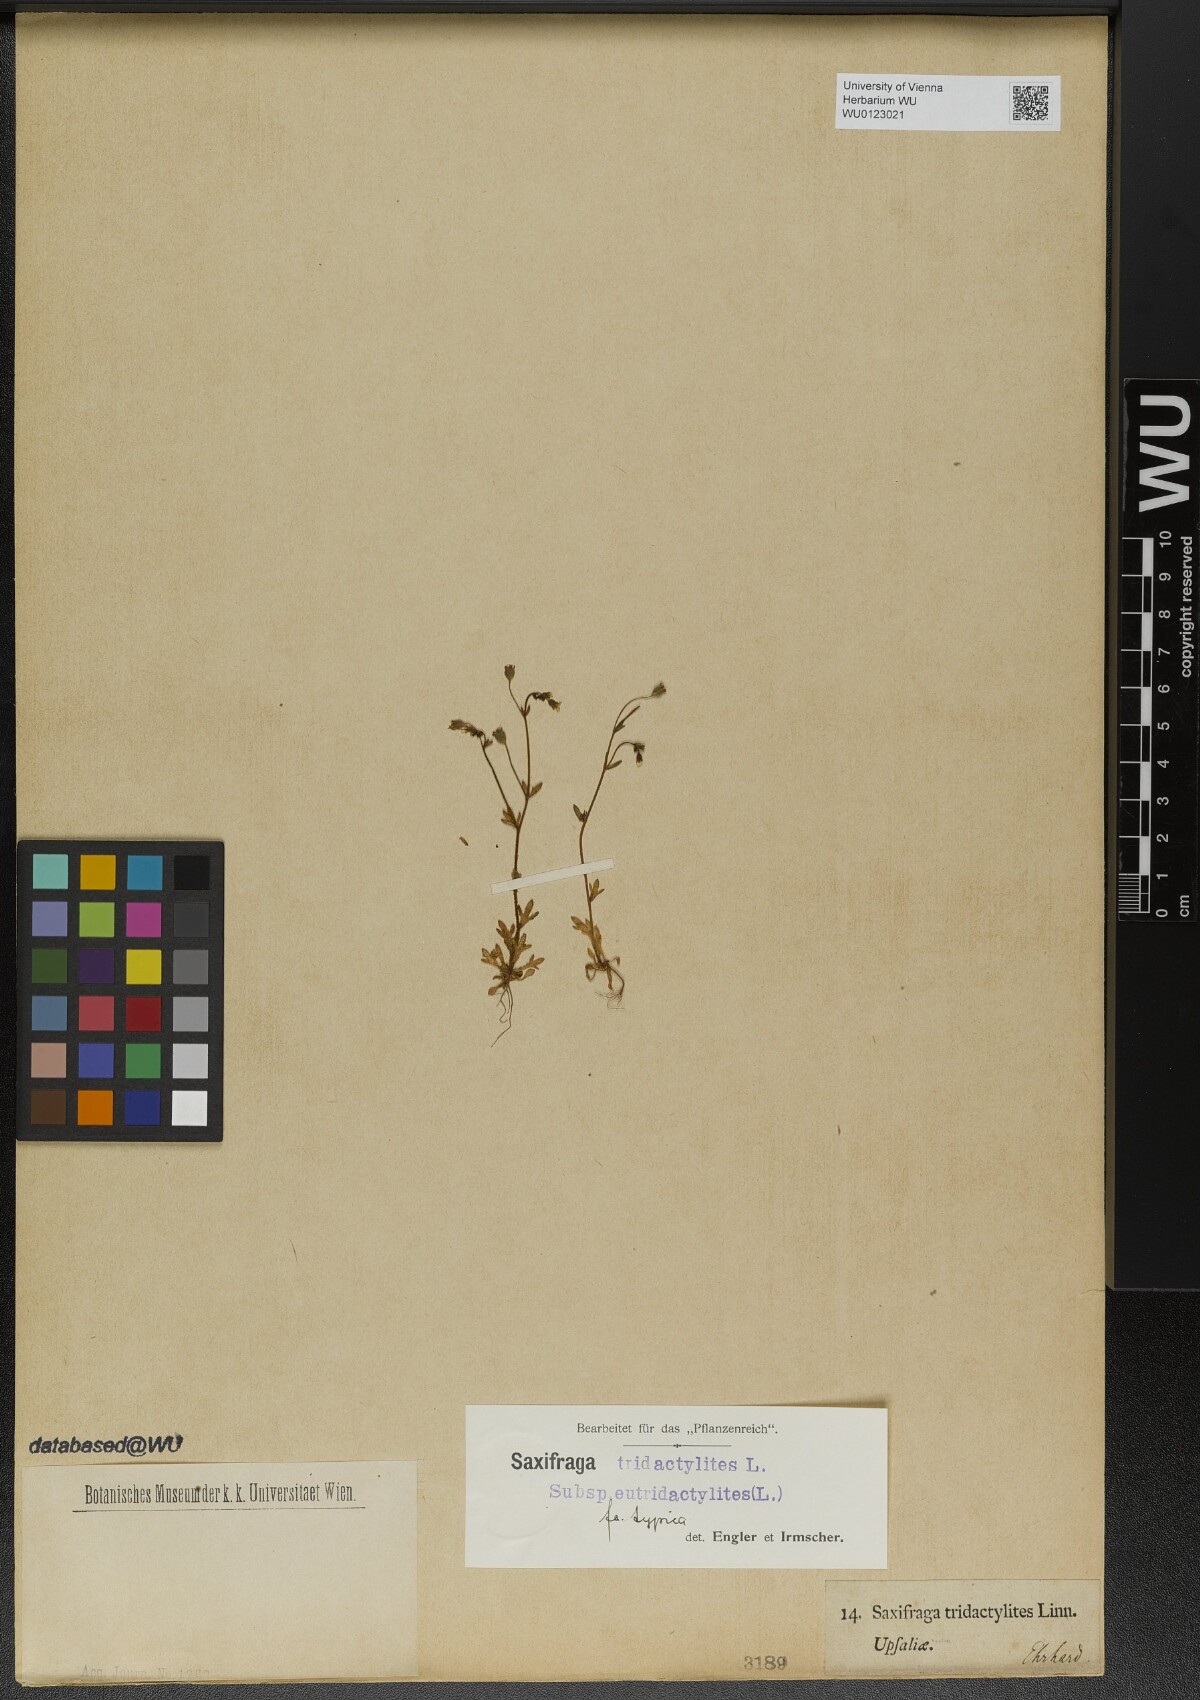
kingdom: Plantae
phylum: Tracheophyta
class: Magnoliopsida
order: Saxifragales
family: Saxifragaceae
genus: Saxifraga
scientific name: Saxifraga tridactylites
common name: Rue-leaved saxifrage
